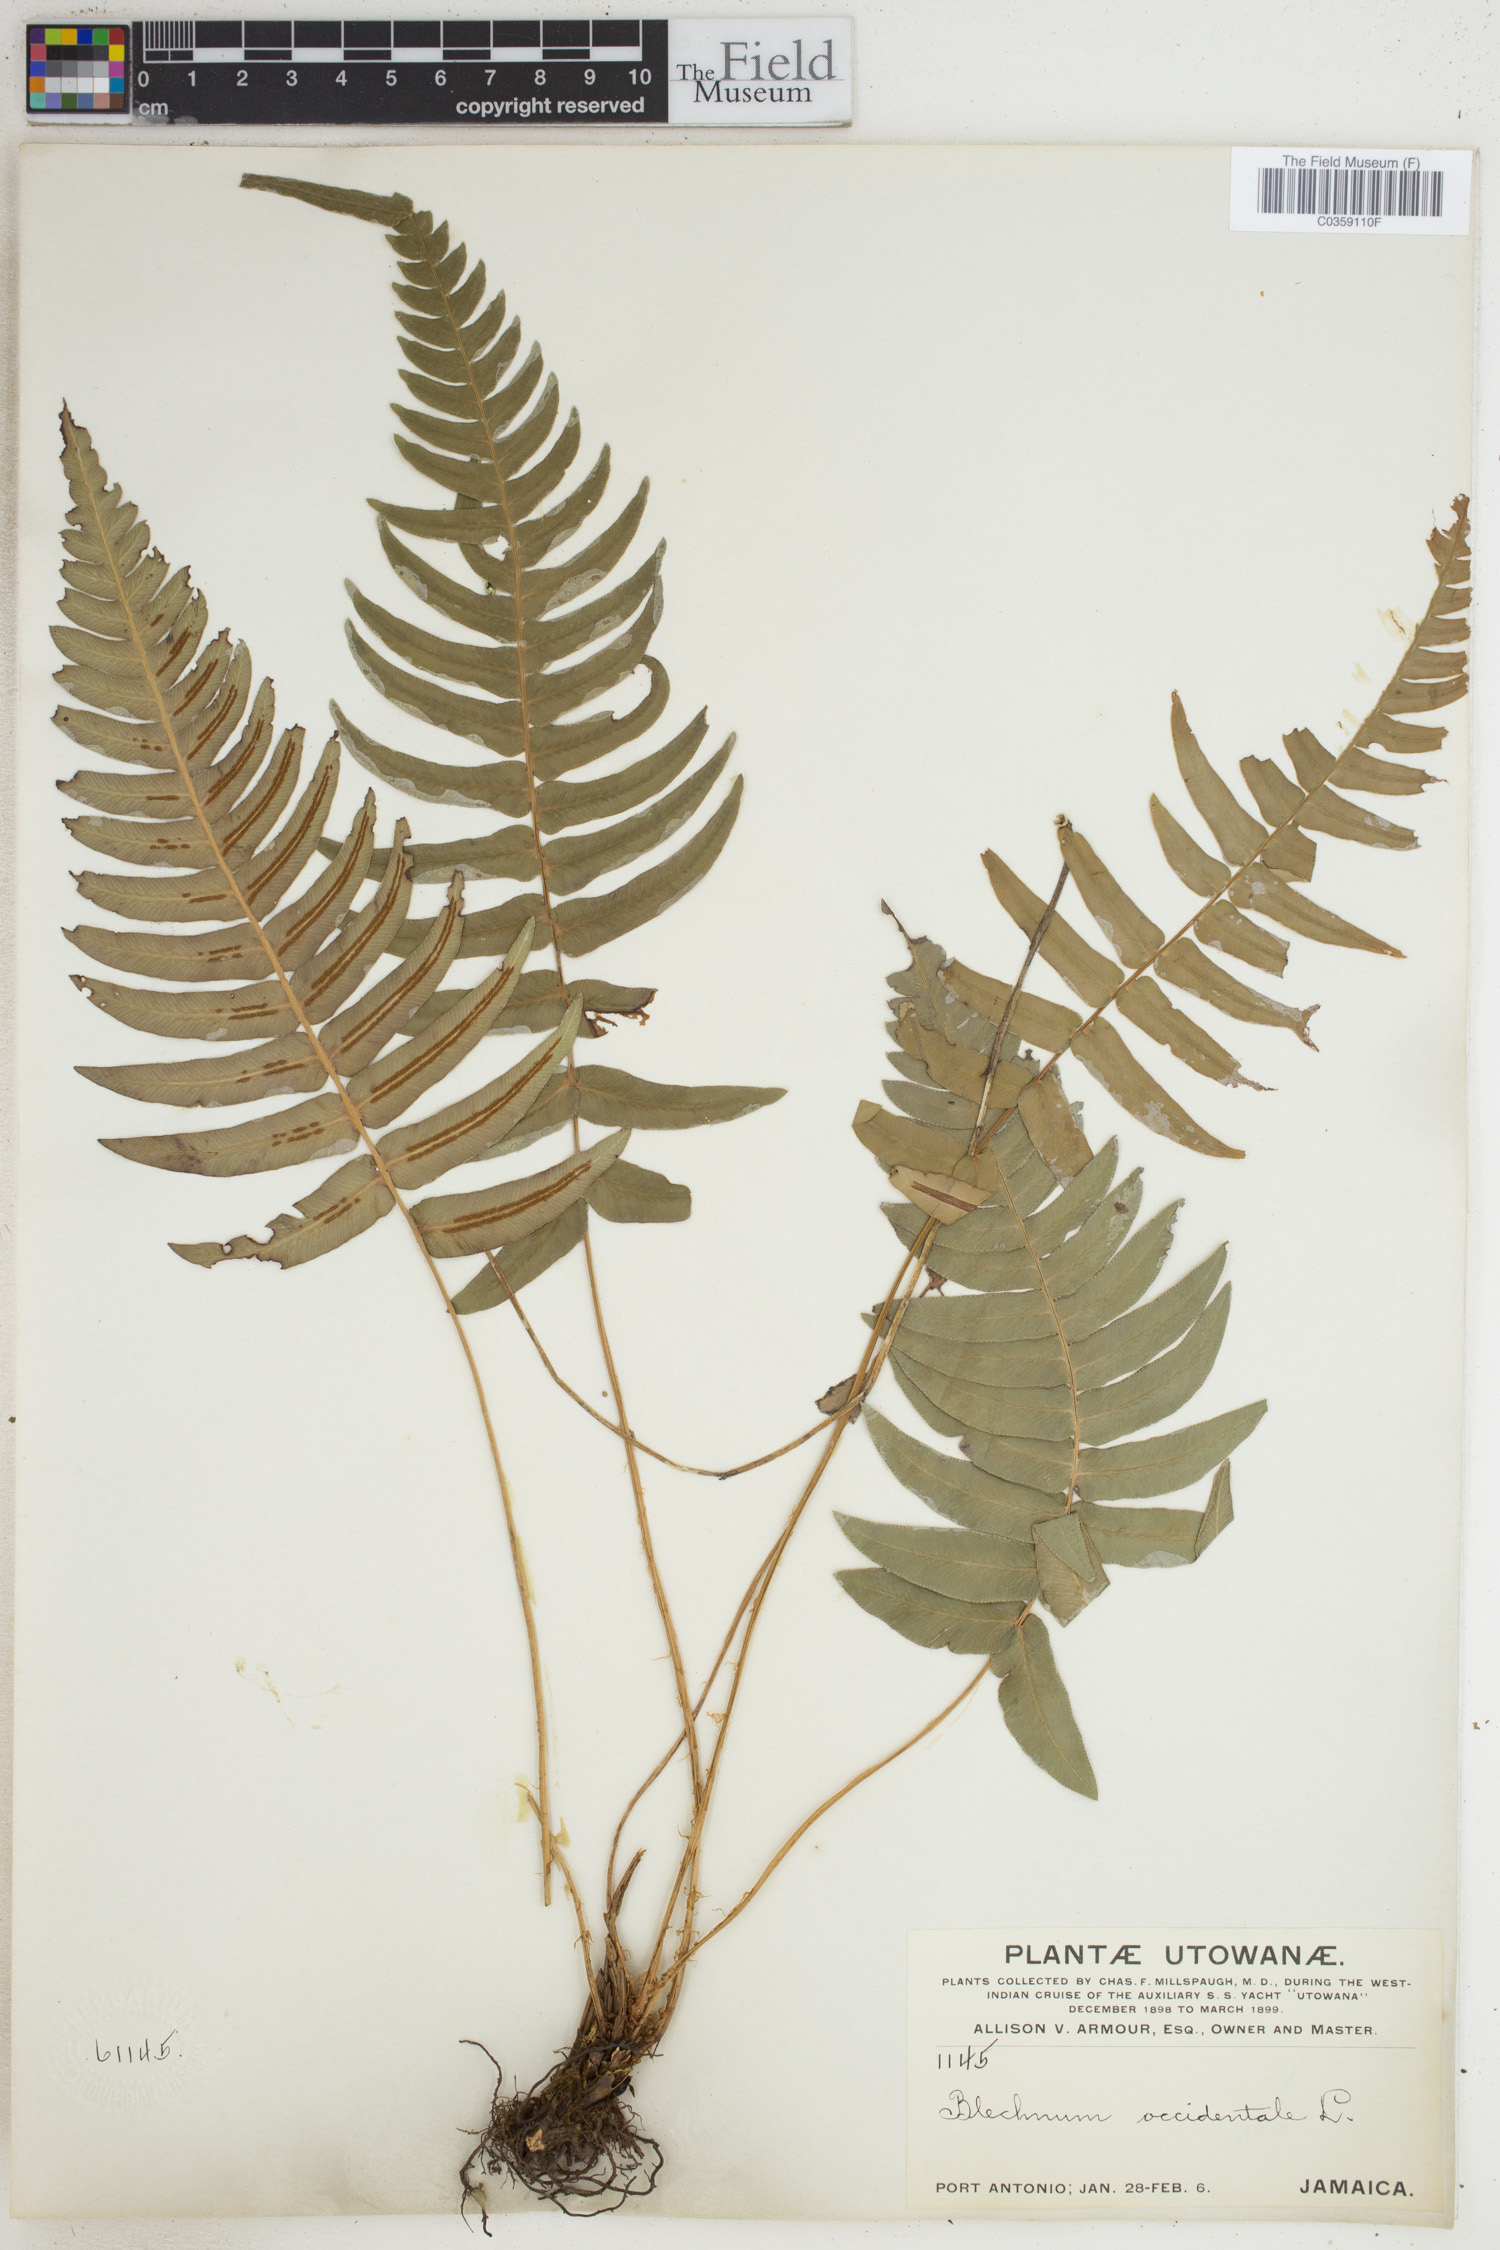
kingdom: Plantae
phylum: Tracheophyta
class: Polypodiopsida
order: Polypodiales
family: Blechnaceae
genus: Blechnum
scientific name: Blechnum occidentale
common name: Hammock fern
